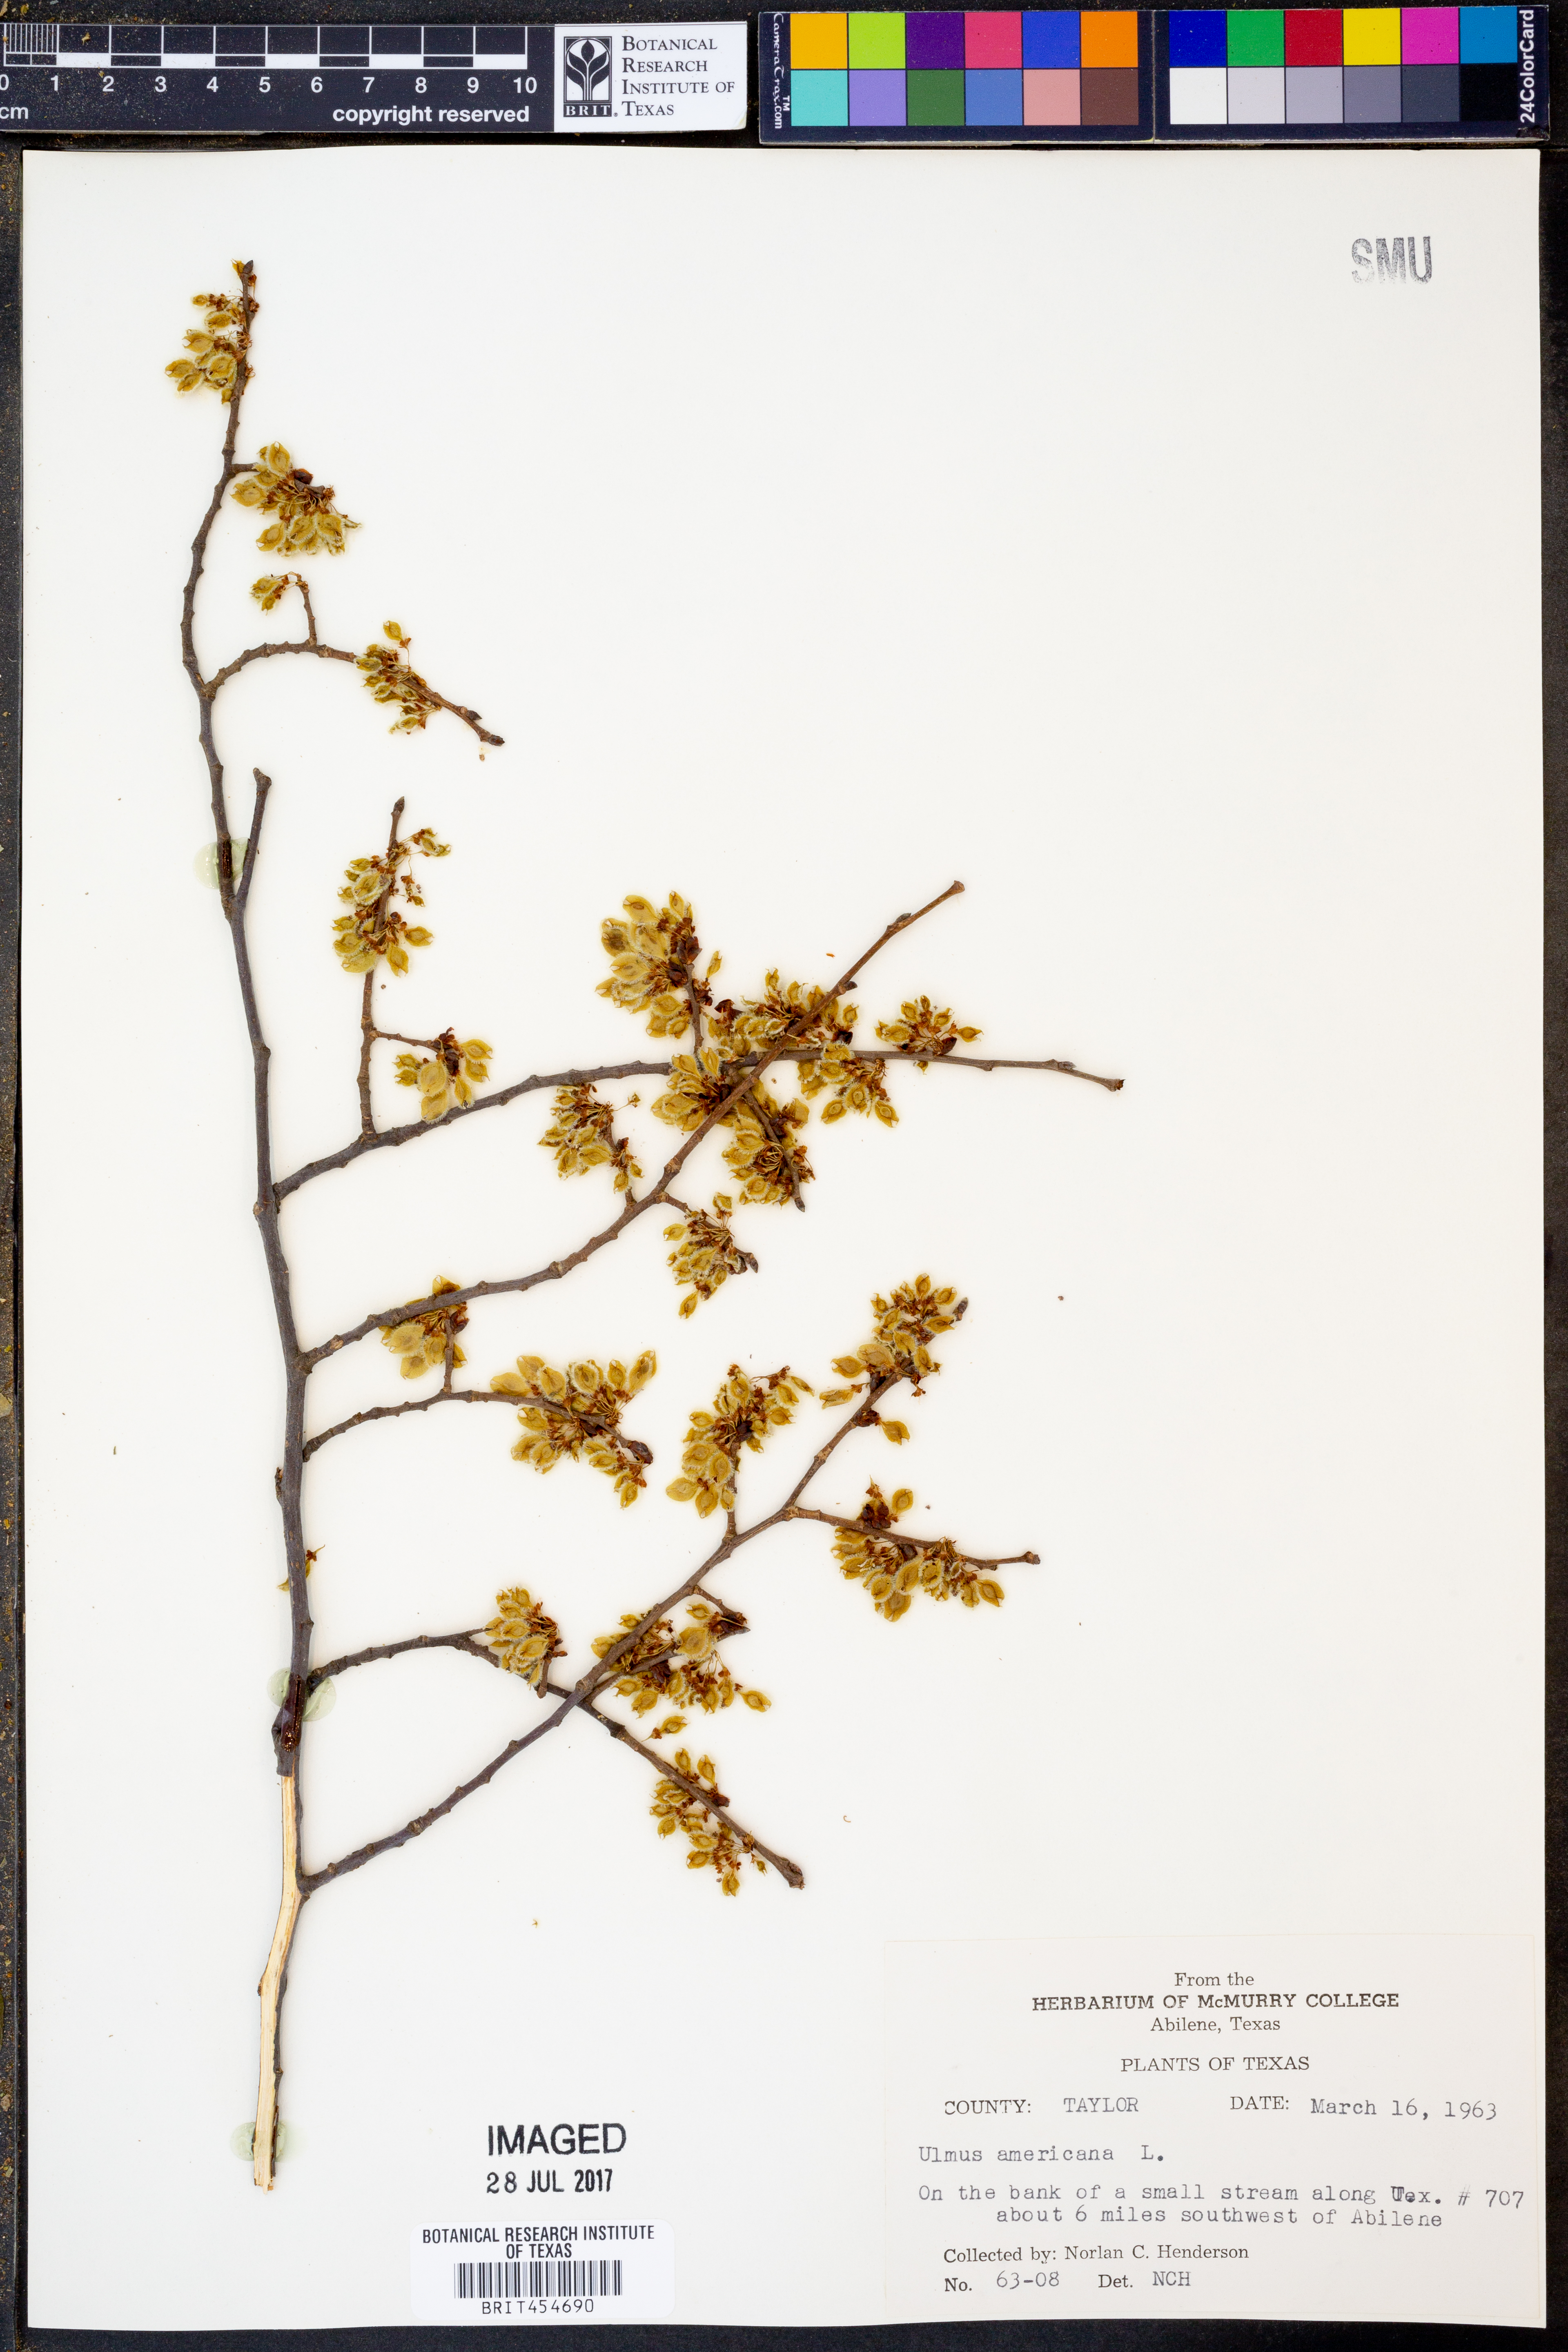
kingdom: Plantae
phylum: Tracheophyta
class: Magnoliopsida
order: Rosales
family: Ulmaceae
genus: Ulmus
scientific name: Ulmus americana
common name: American elm
